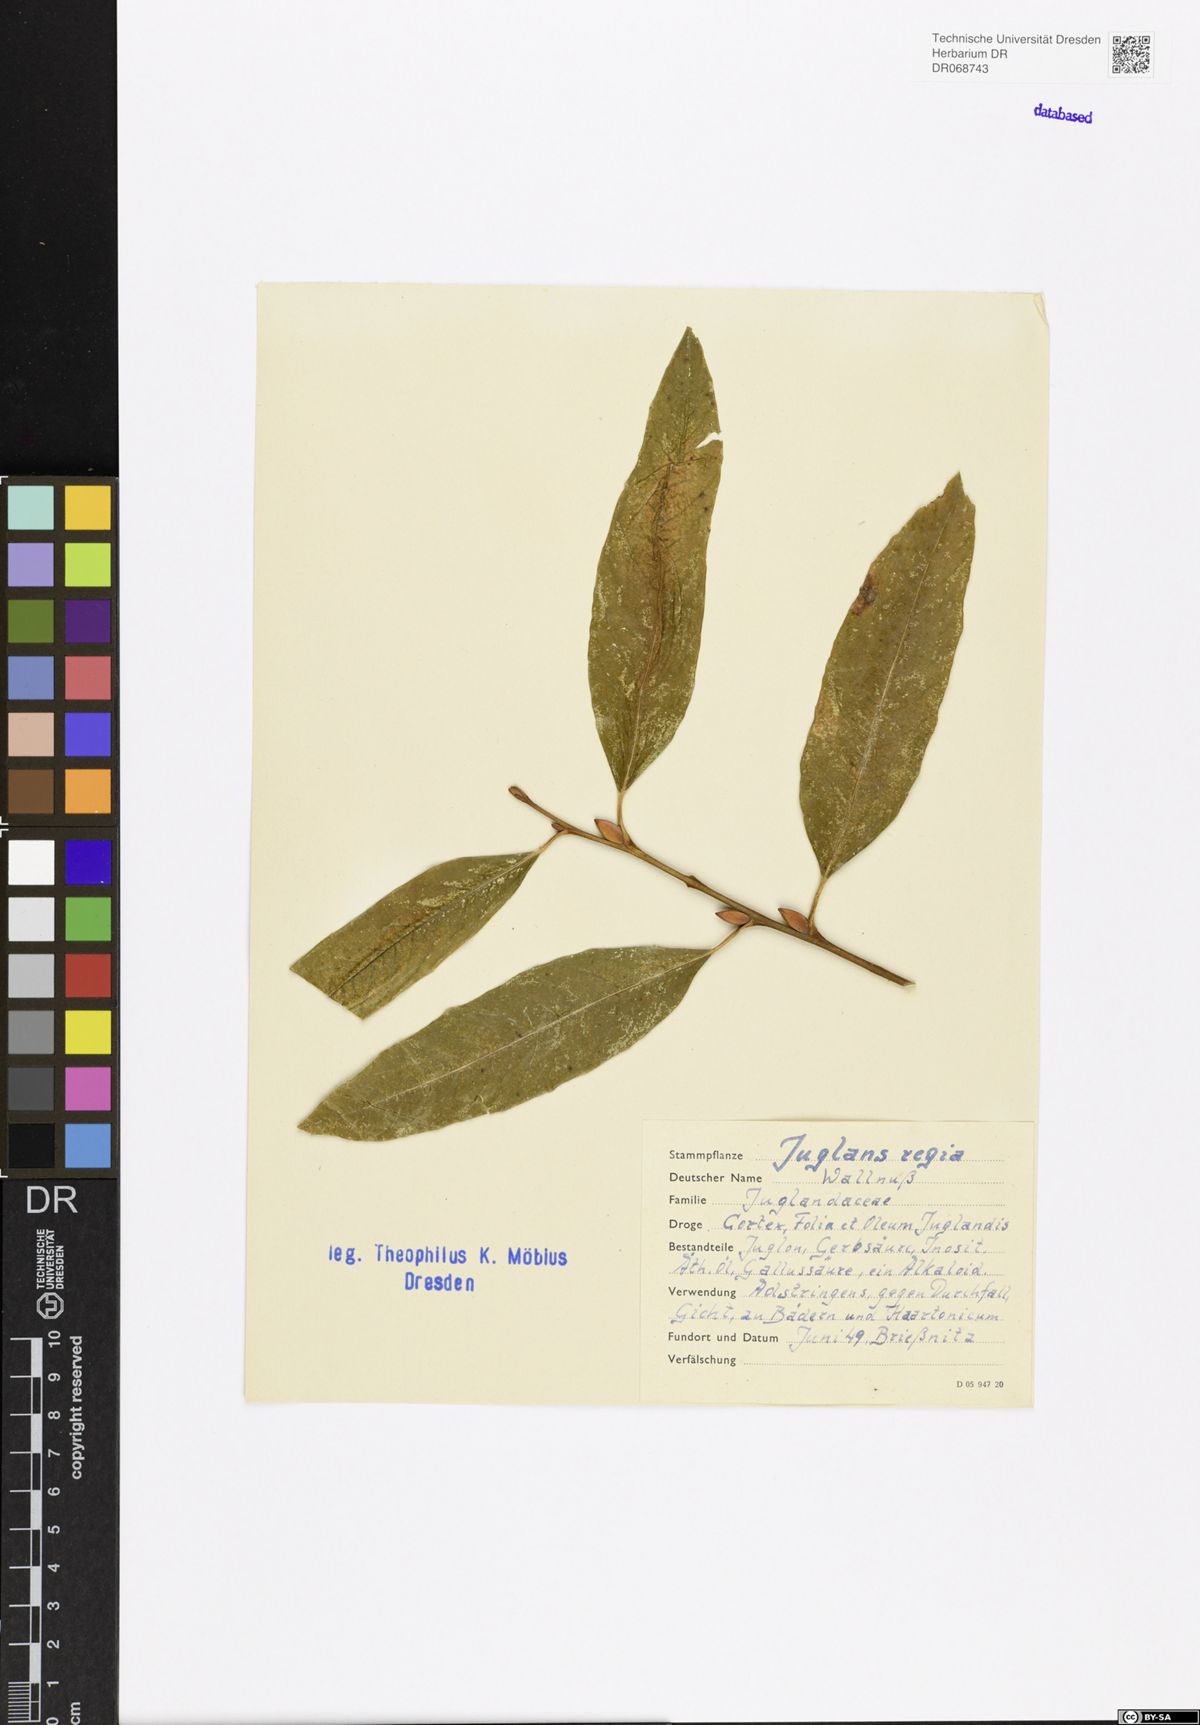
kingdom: Plantae
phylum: Tracheophyta
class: Magnoliopsida
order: Fagales
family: Juglandaceae
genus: Juglans
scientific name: Juglans regia
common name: Walnut
